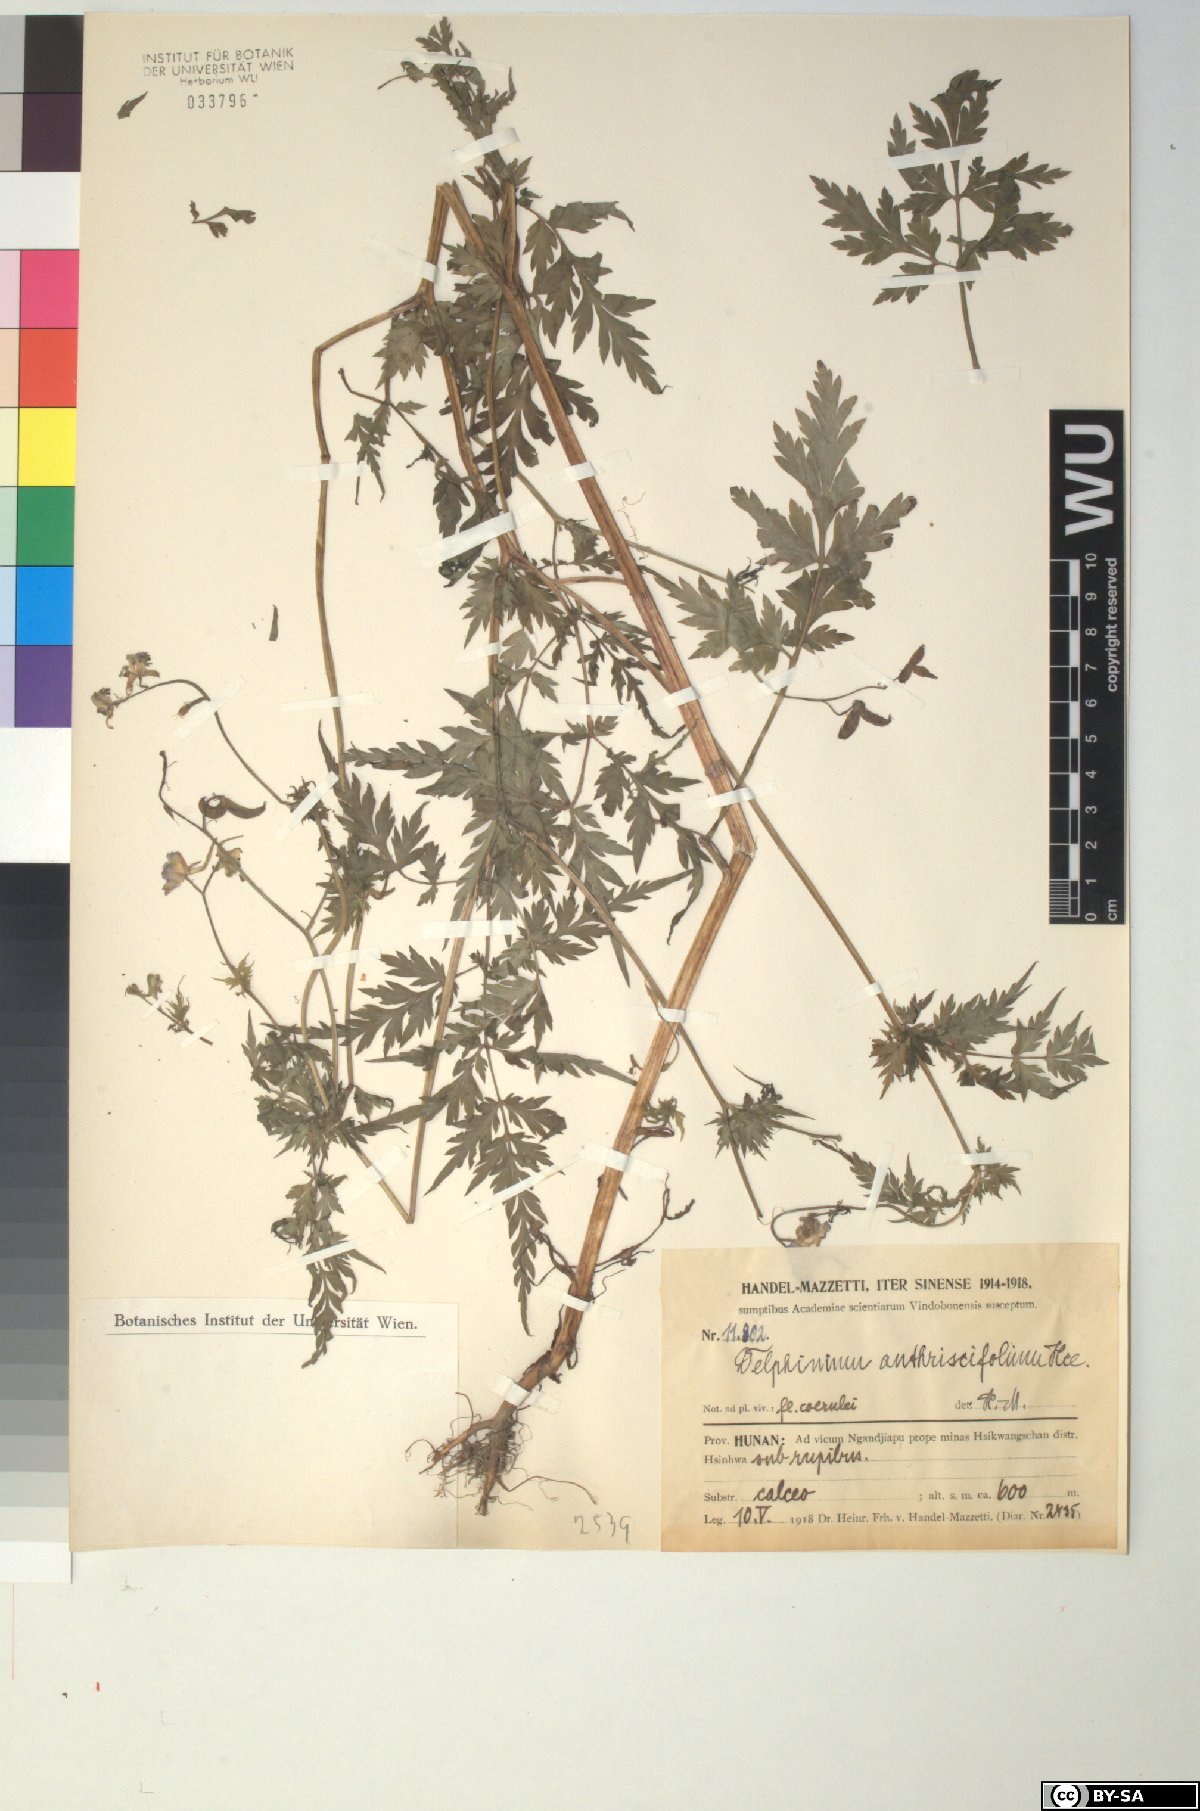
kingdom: Plantae
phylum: Tracheophyta
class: Magnoliopsida
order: Ranunculales
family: Ranunculaceae
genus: Delphinium
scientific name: Delphinium anthriscifolium
